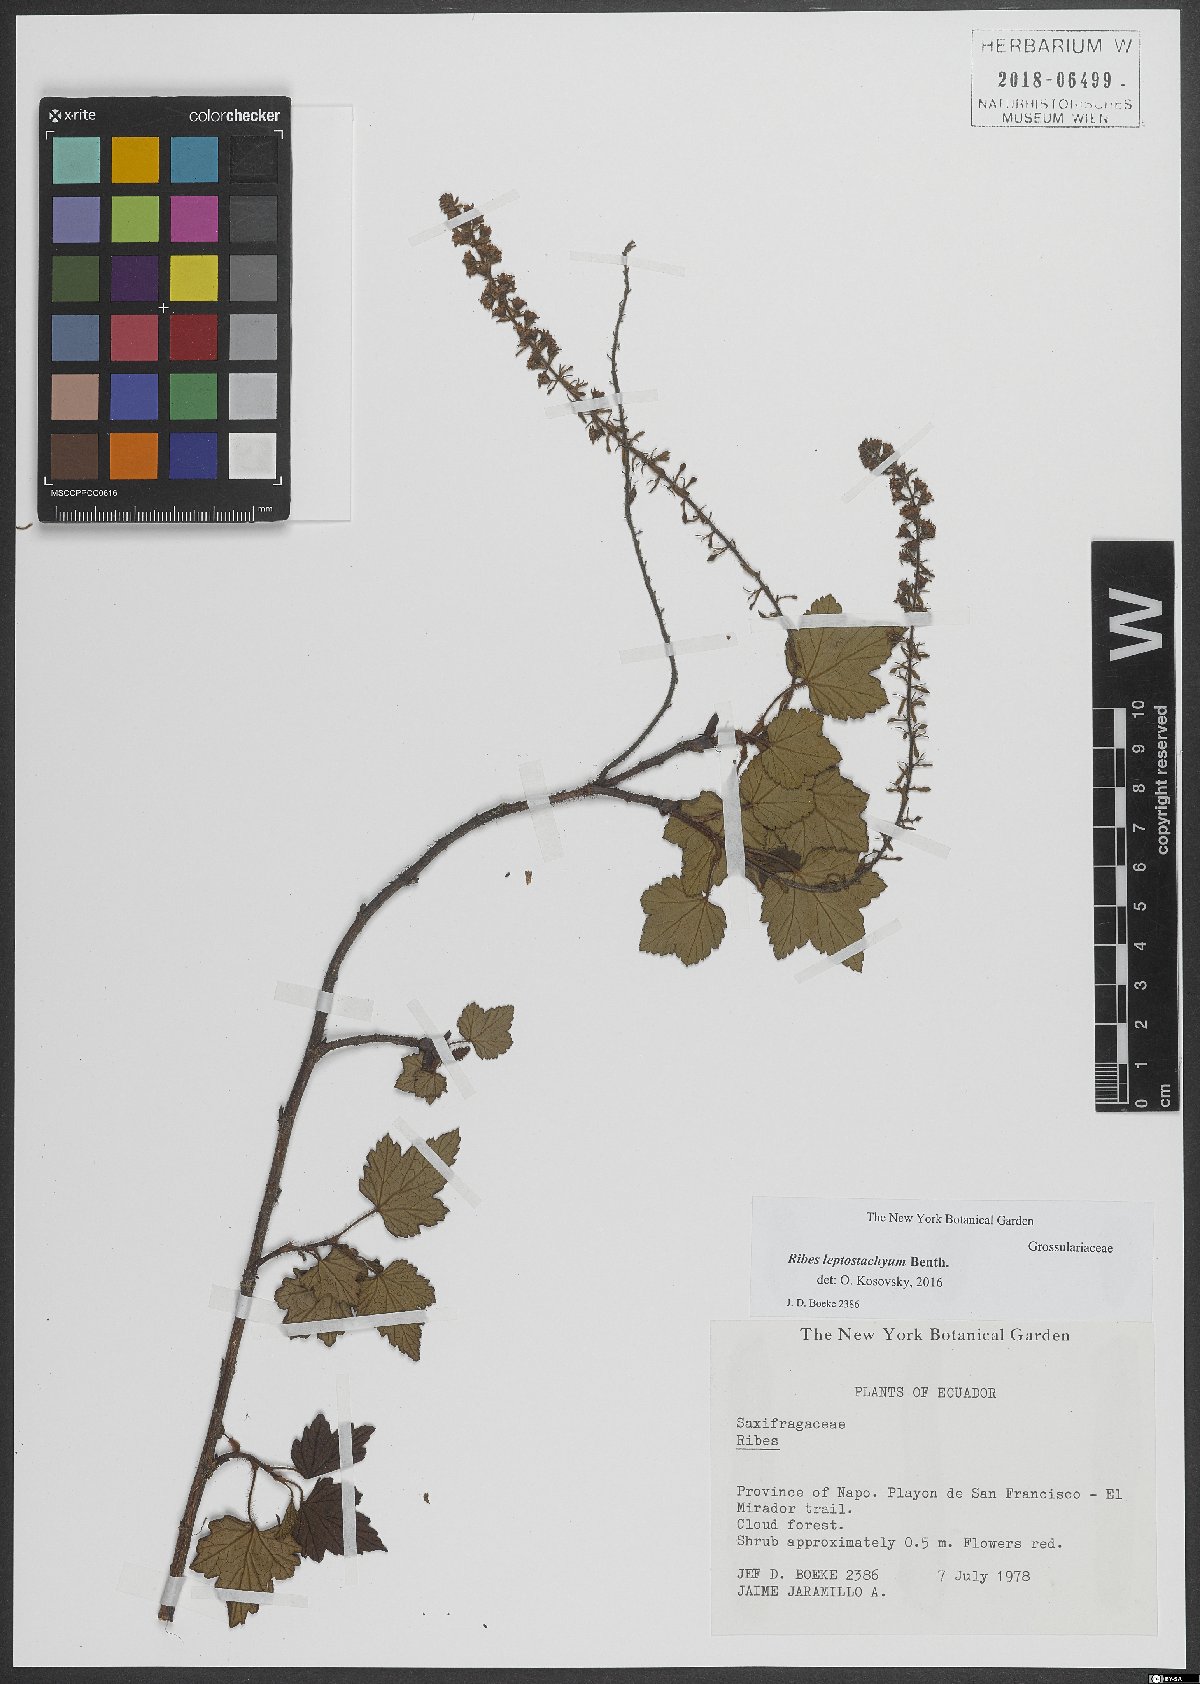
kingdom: Plantae
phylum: Tracheophyta
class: Magnoliopsida
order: Saxifragales
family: Grossulariaceae
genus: Ribes
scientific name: Ribes leptostachyum
